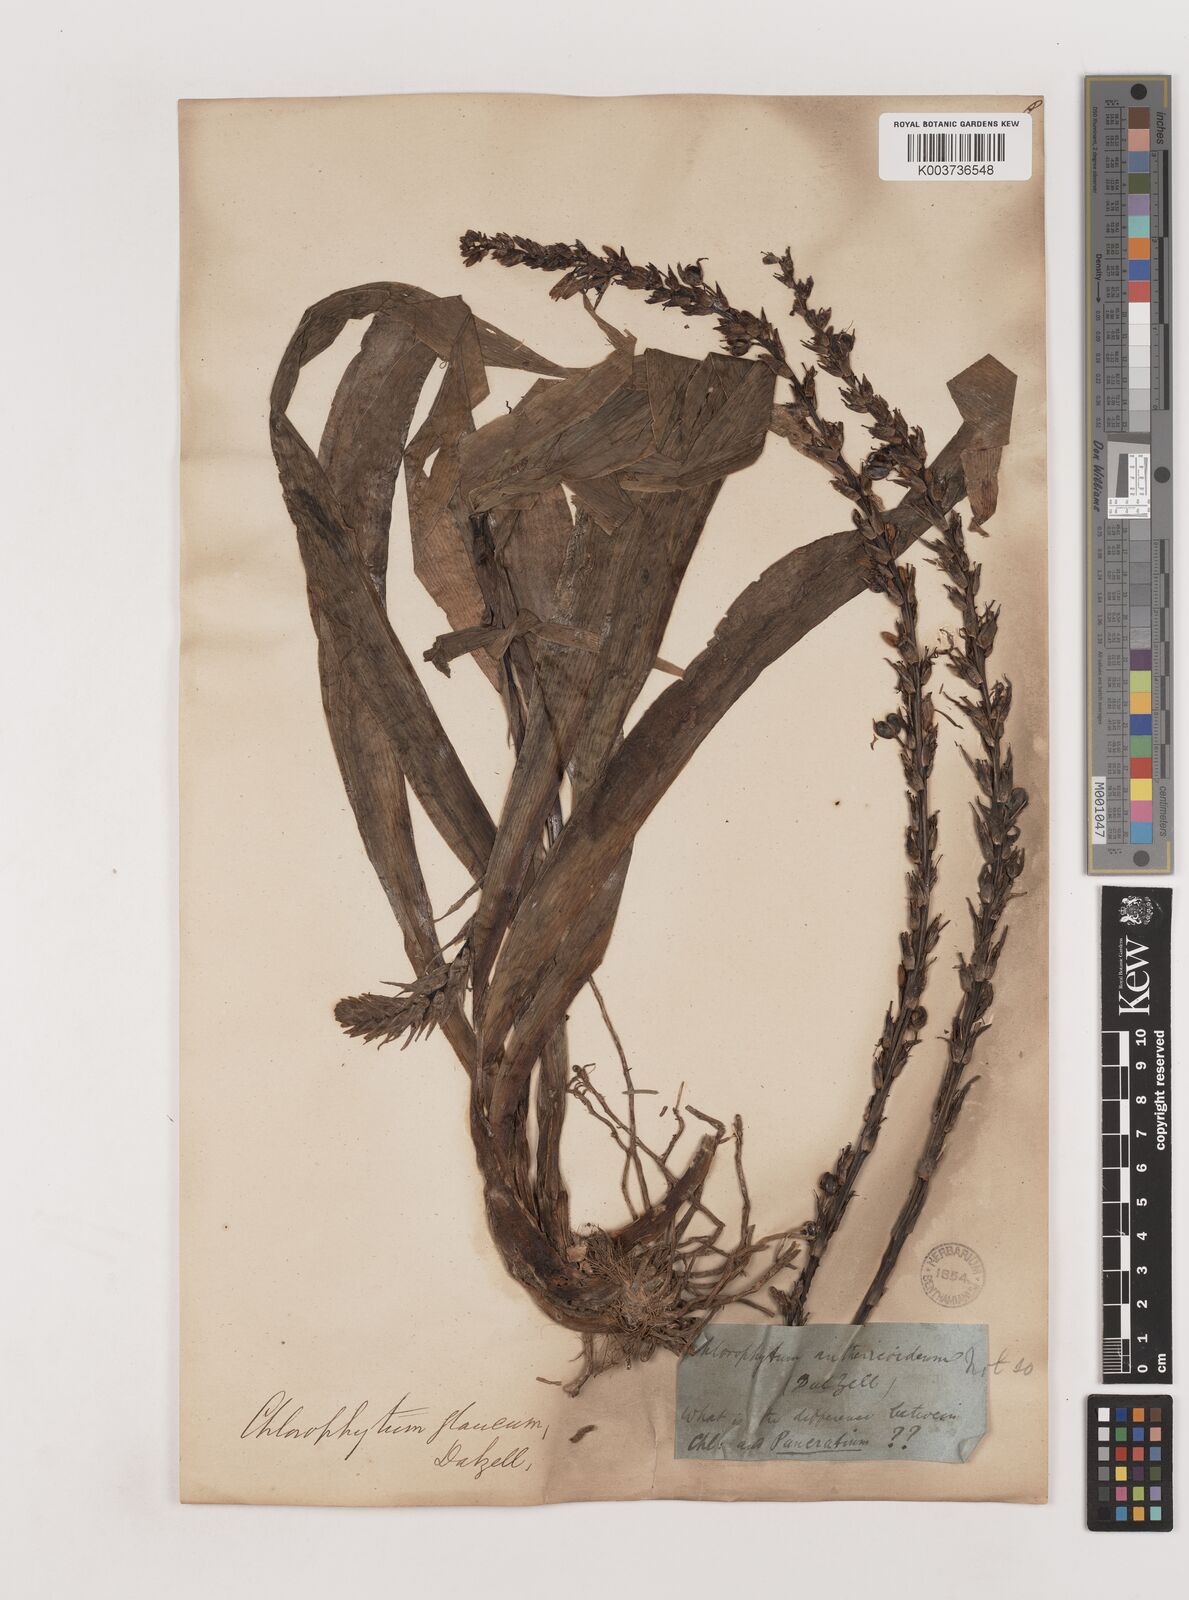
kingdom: Plantae
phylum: Tracheophyta
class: Liliopsida
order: Asparagales
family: Asparagaceae
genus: Chlorophytum
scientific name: Chlorophytum glaucum
